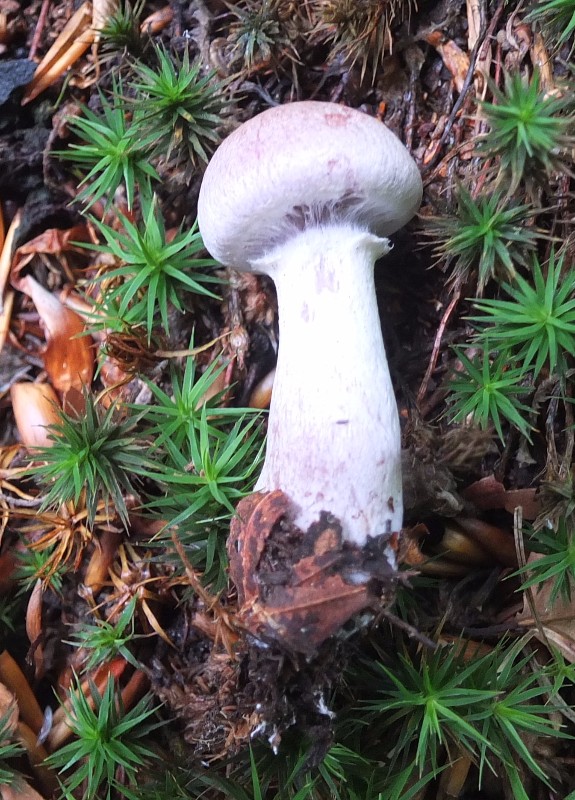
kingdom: Fungi
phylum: Basidiomycota
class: Agaricomycetes
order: Agaricales
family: Cortinariaceae
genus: Cortinarius
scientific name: Cortinarius alboviolaceus
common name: lysviolet slørhat
